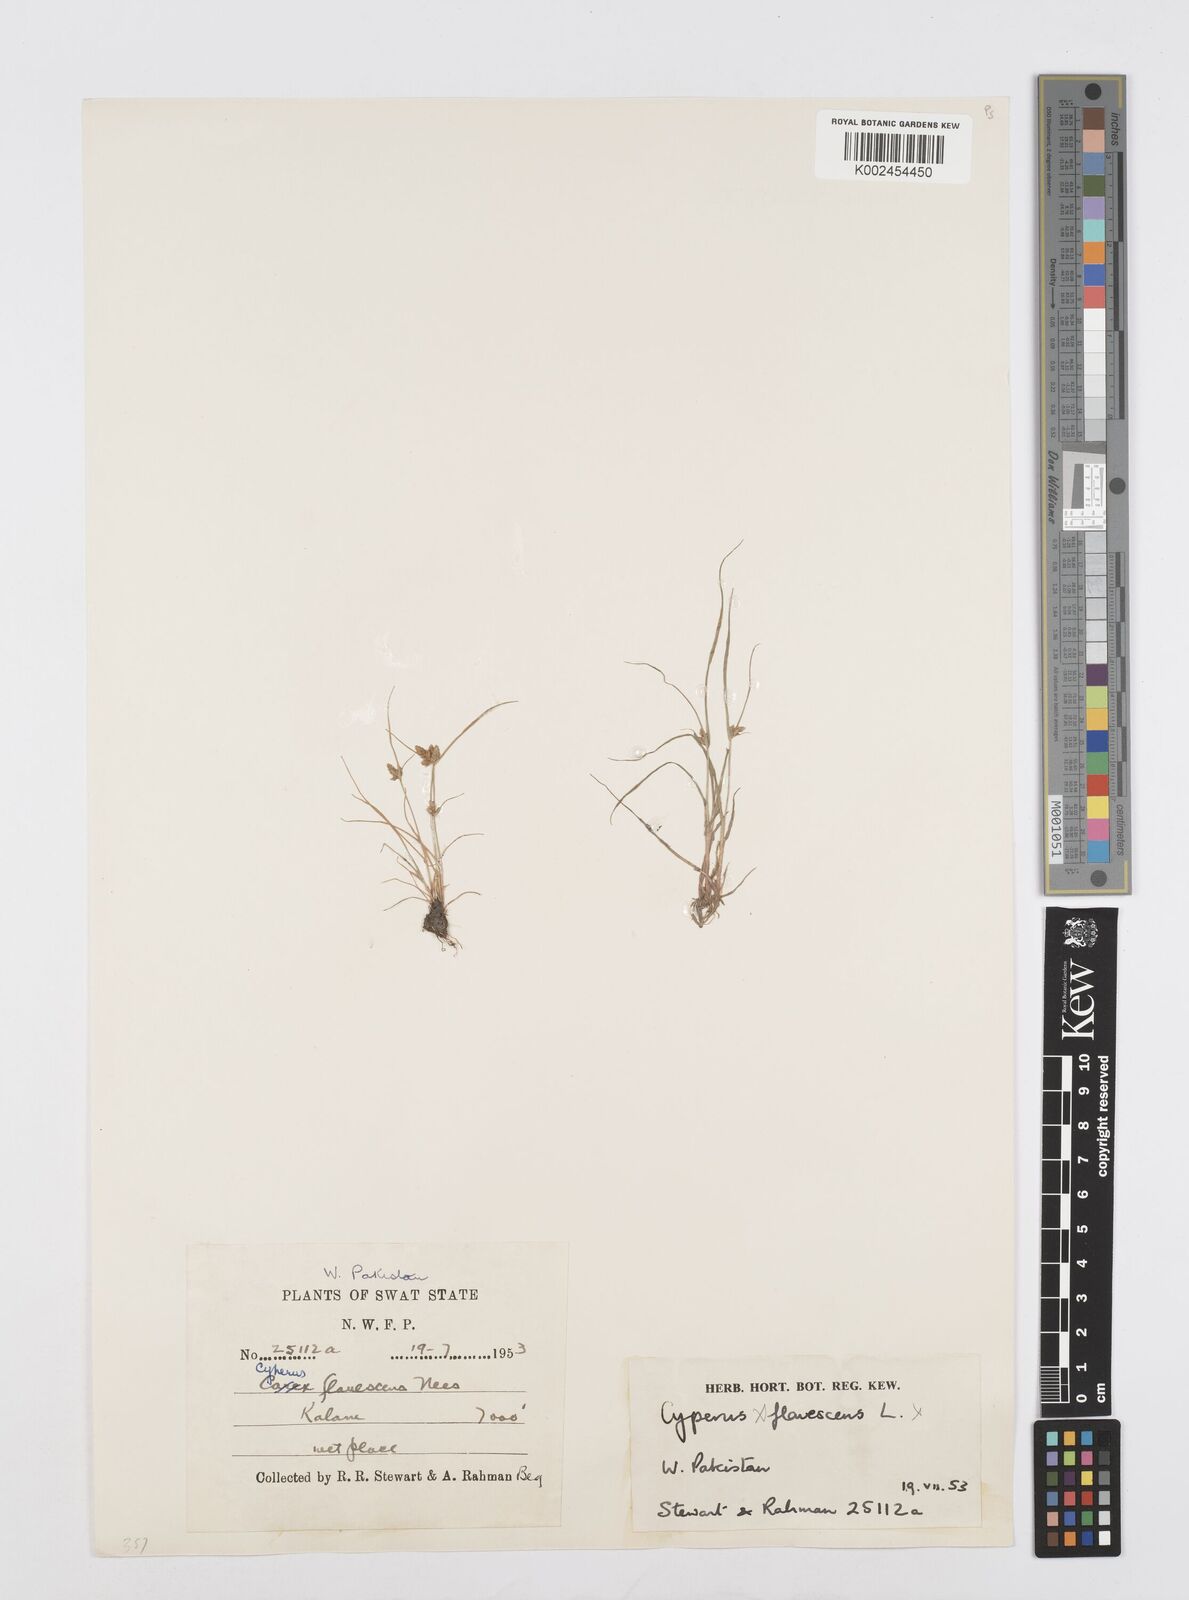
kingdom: Plantae
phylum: Tracheophyta
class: Liliopsida
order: Poales
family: Cyperaceae
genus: Cyperus
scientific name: Cyperus diaphanus
